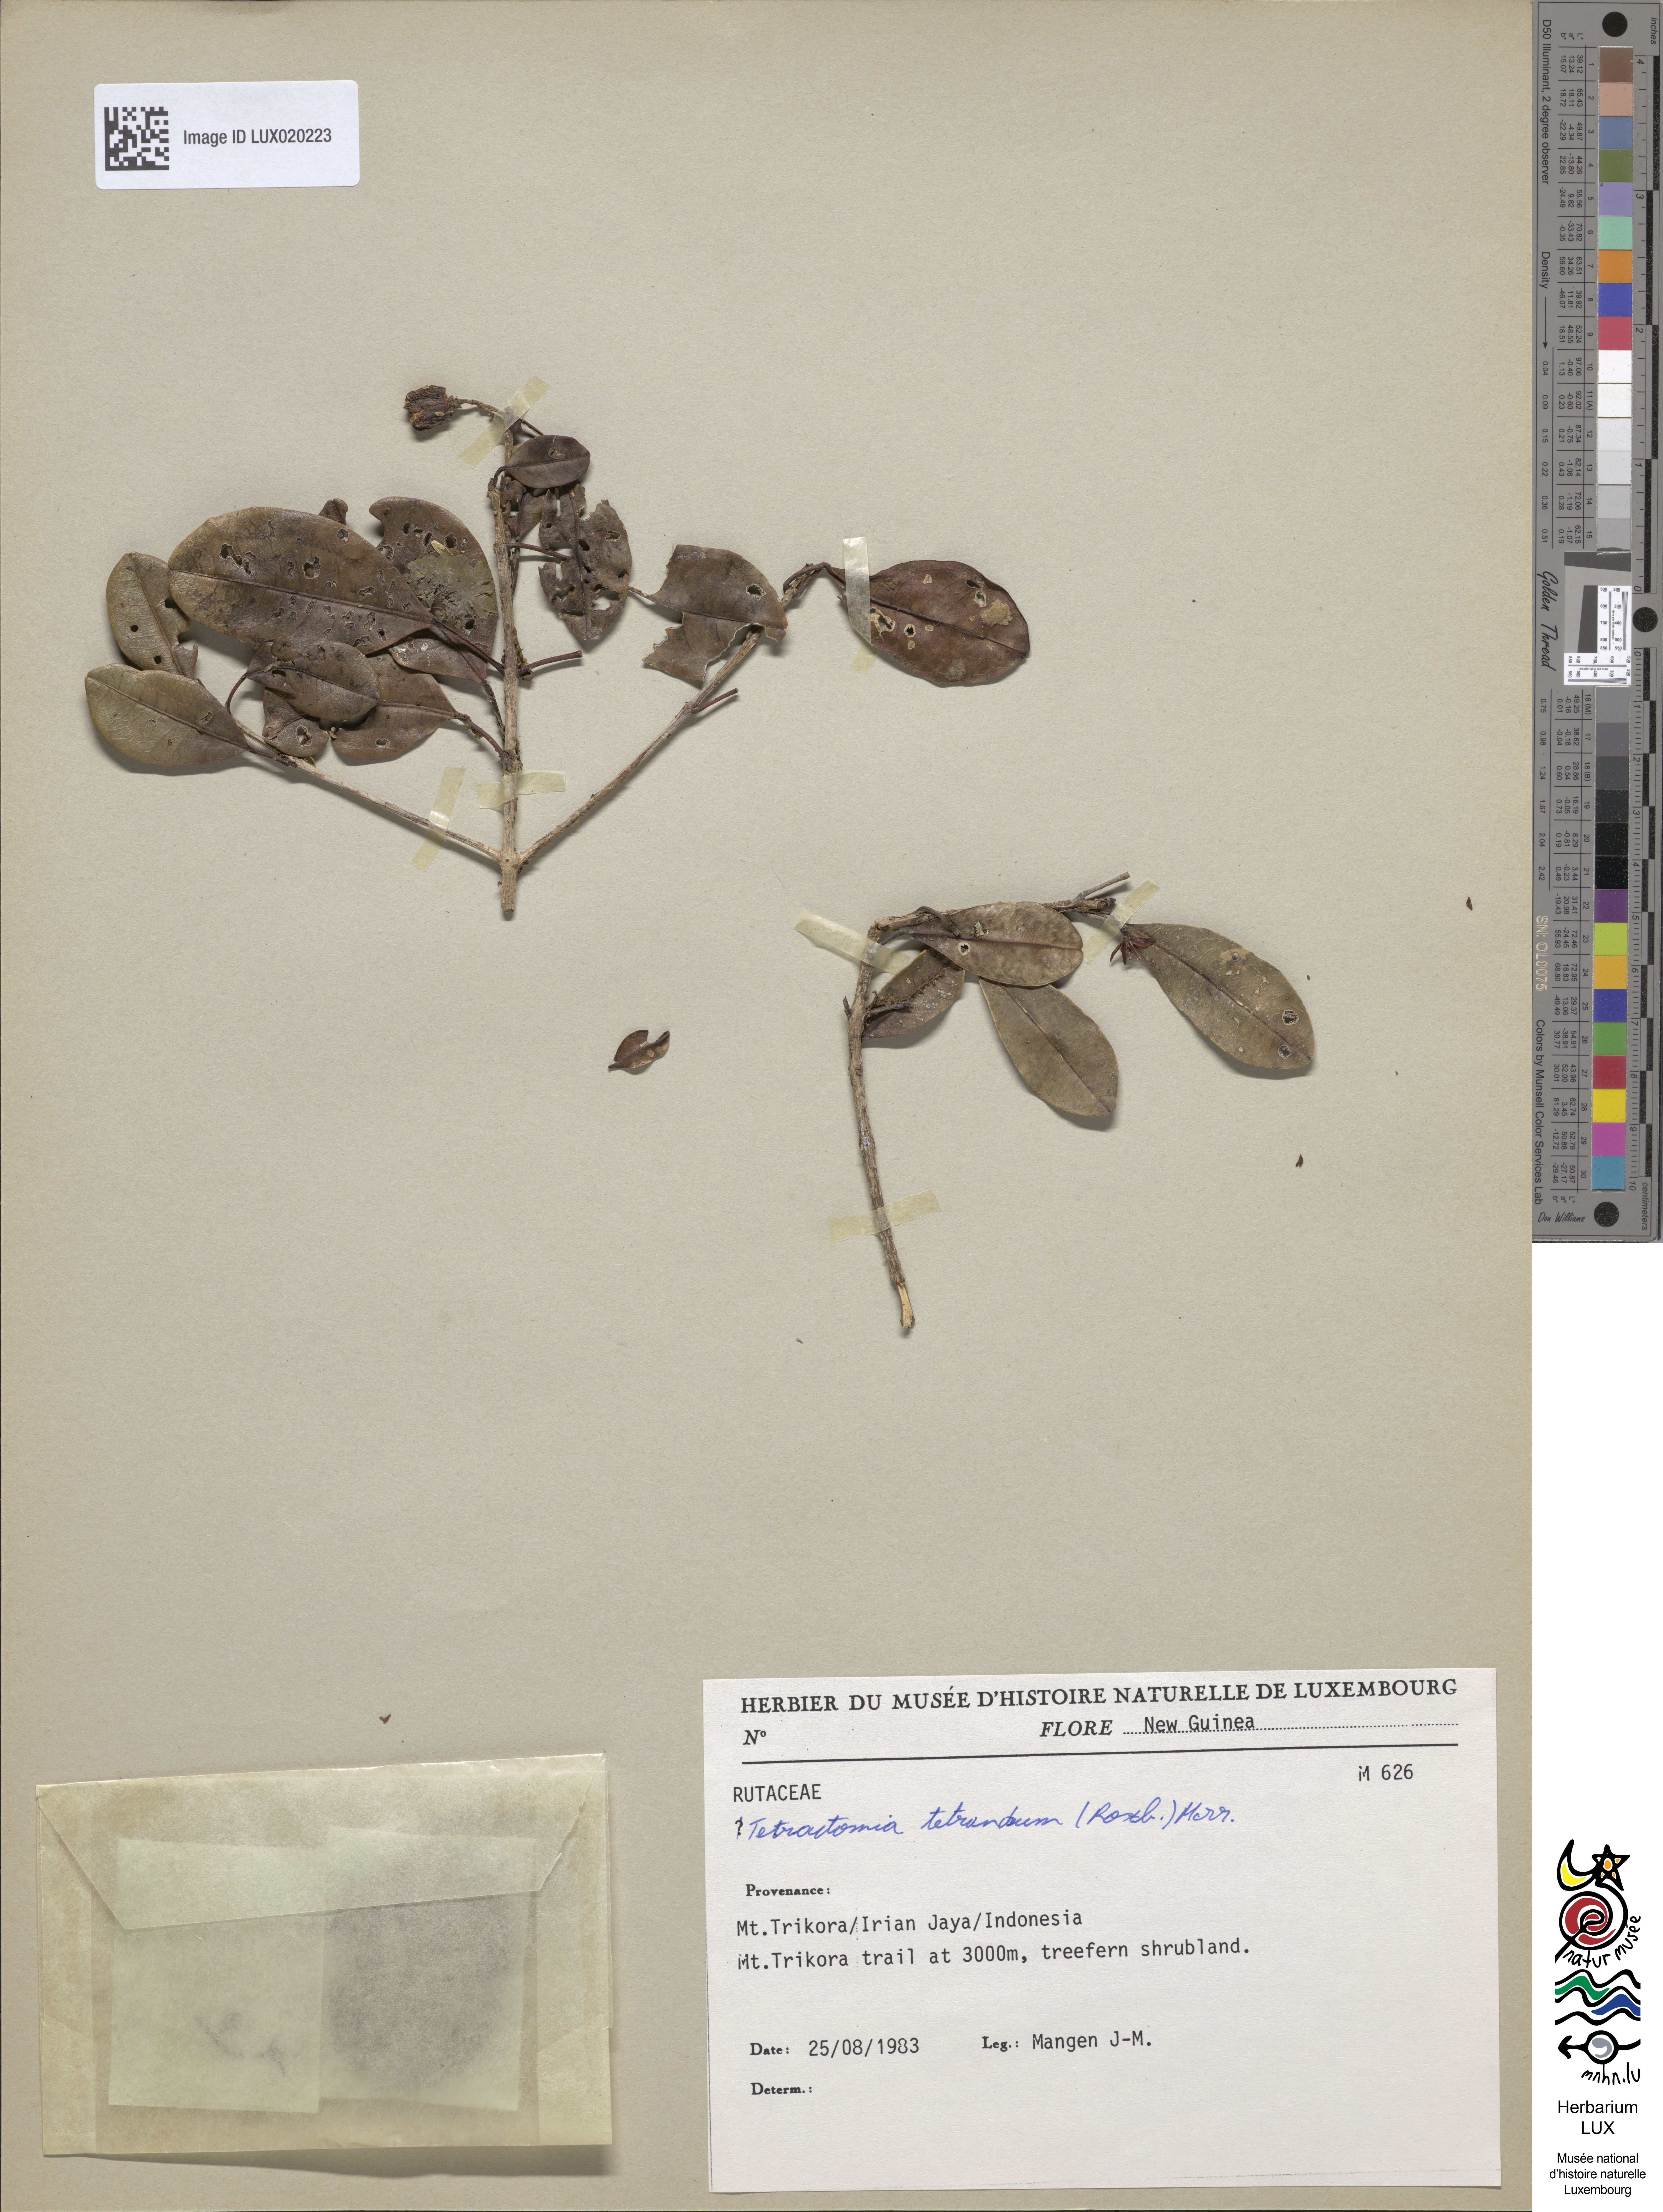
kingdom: Plantae
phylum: Tracheophyta
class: Magnoliopsida
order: Sapindales
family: Rutaceae
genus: Tetractomia
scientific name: Tetractomia tetrandra
